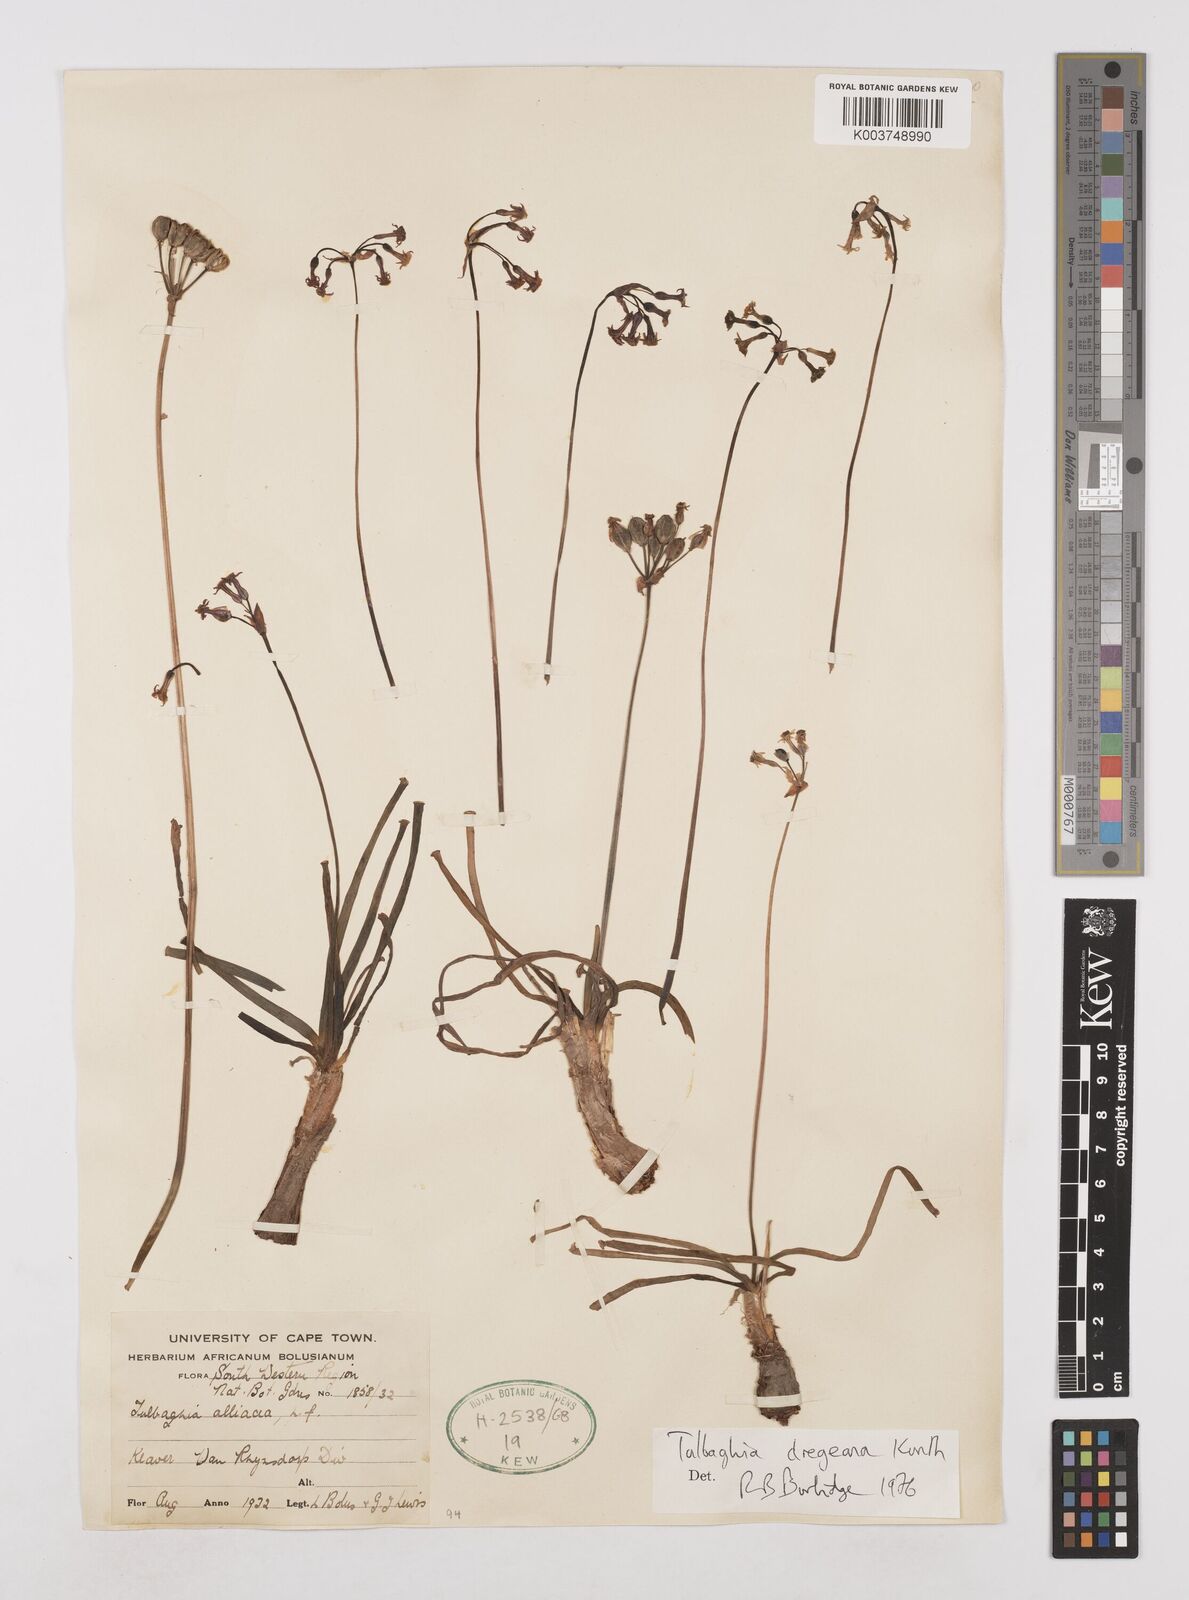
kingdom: Plantae
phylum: Tracheophyta
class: Liliopsida
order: Asparagales
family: Amaryllidaceae
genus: Tulbaghia
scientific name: Tulbaghia dregeana
